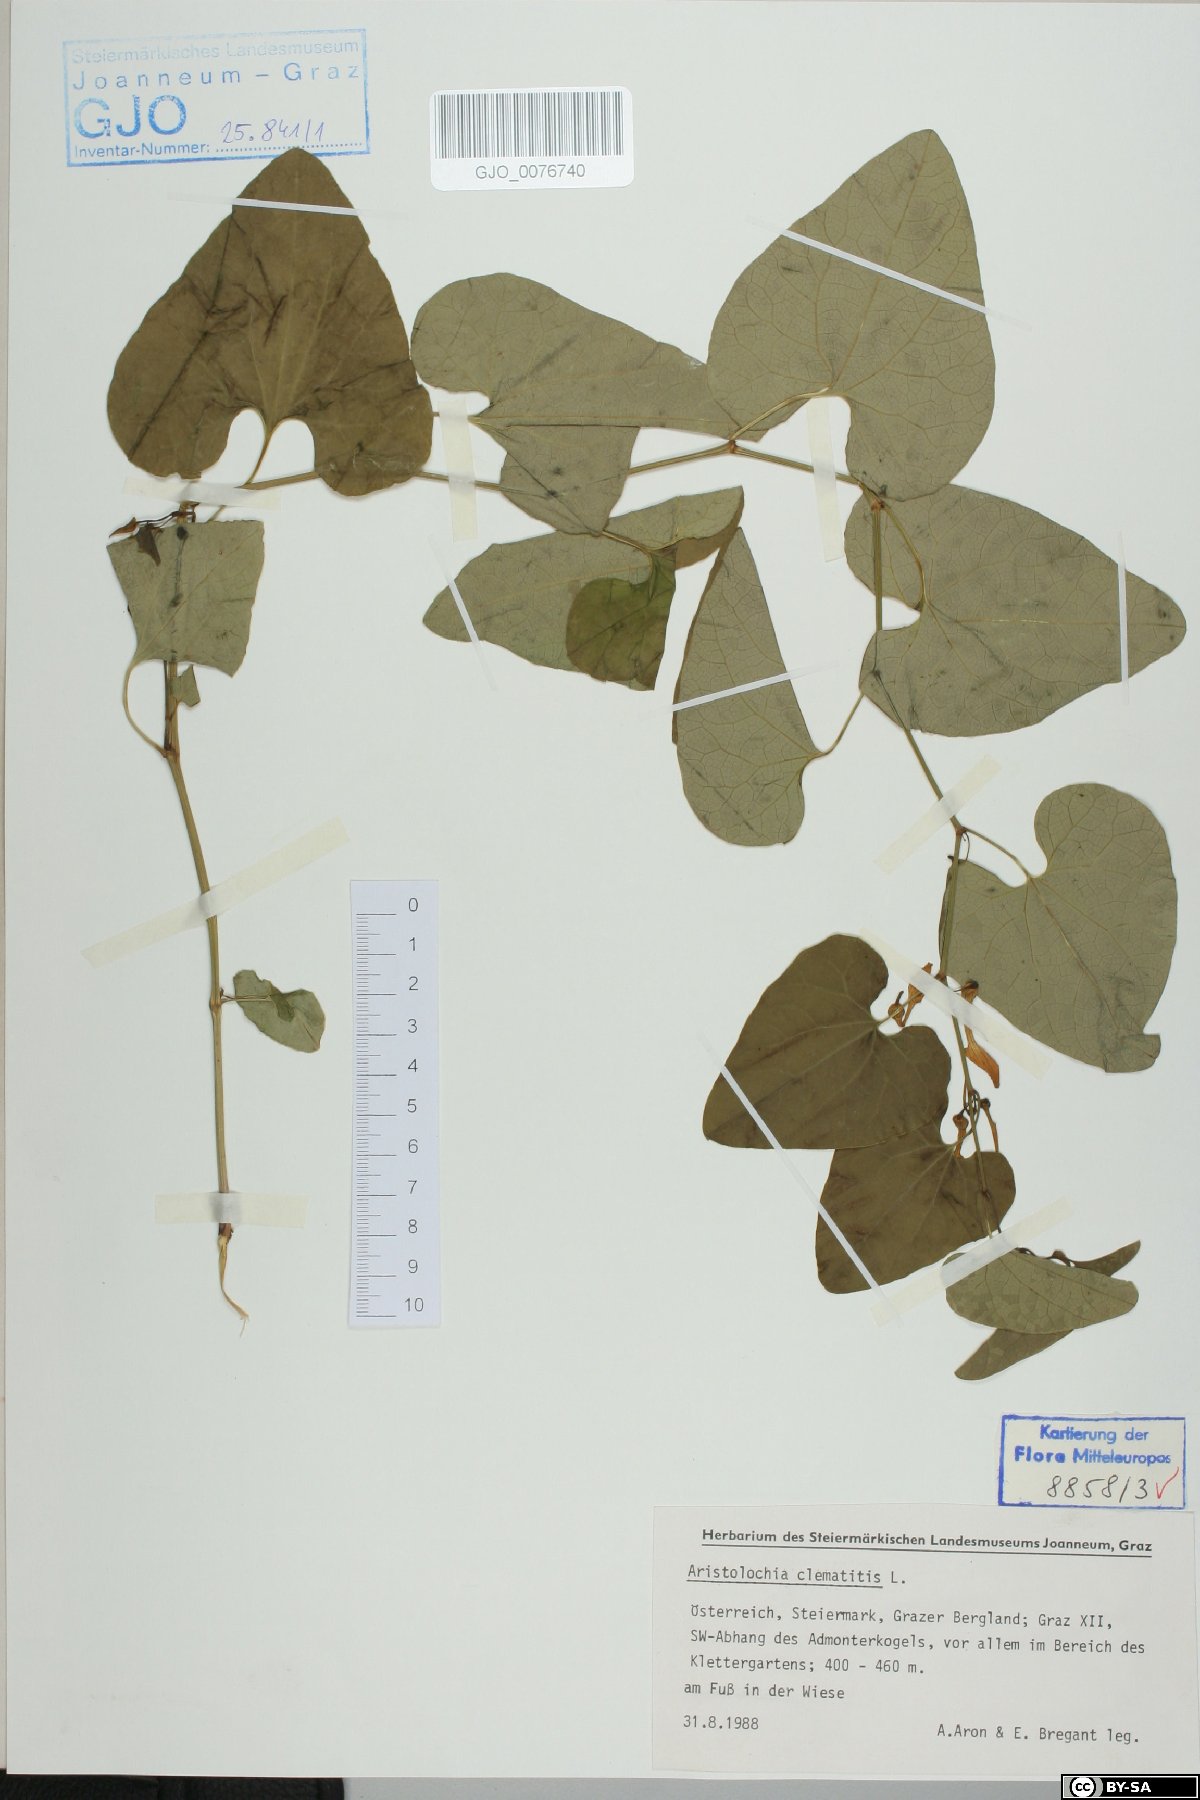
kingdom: Plantae
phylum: Tracheophyta
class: Magnoliopsida
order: Piperales
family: Aristolochiaceae
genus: Aristolochia
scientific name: Aristolochia clematitis
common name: Birthwort
